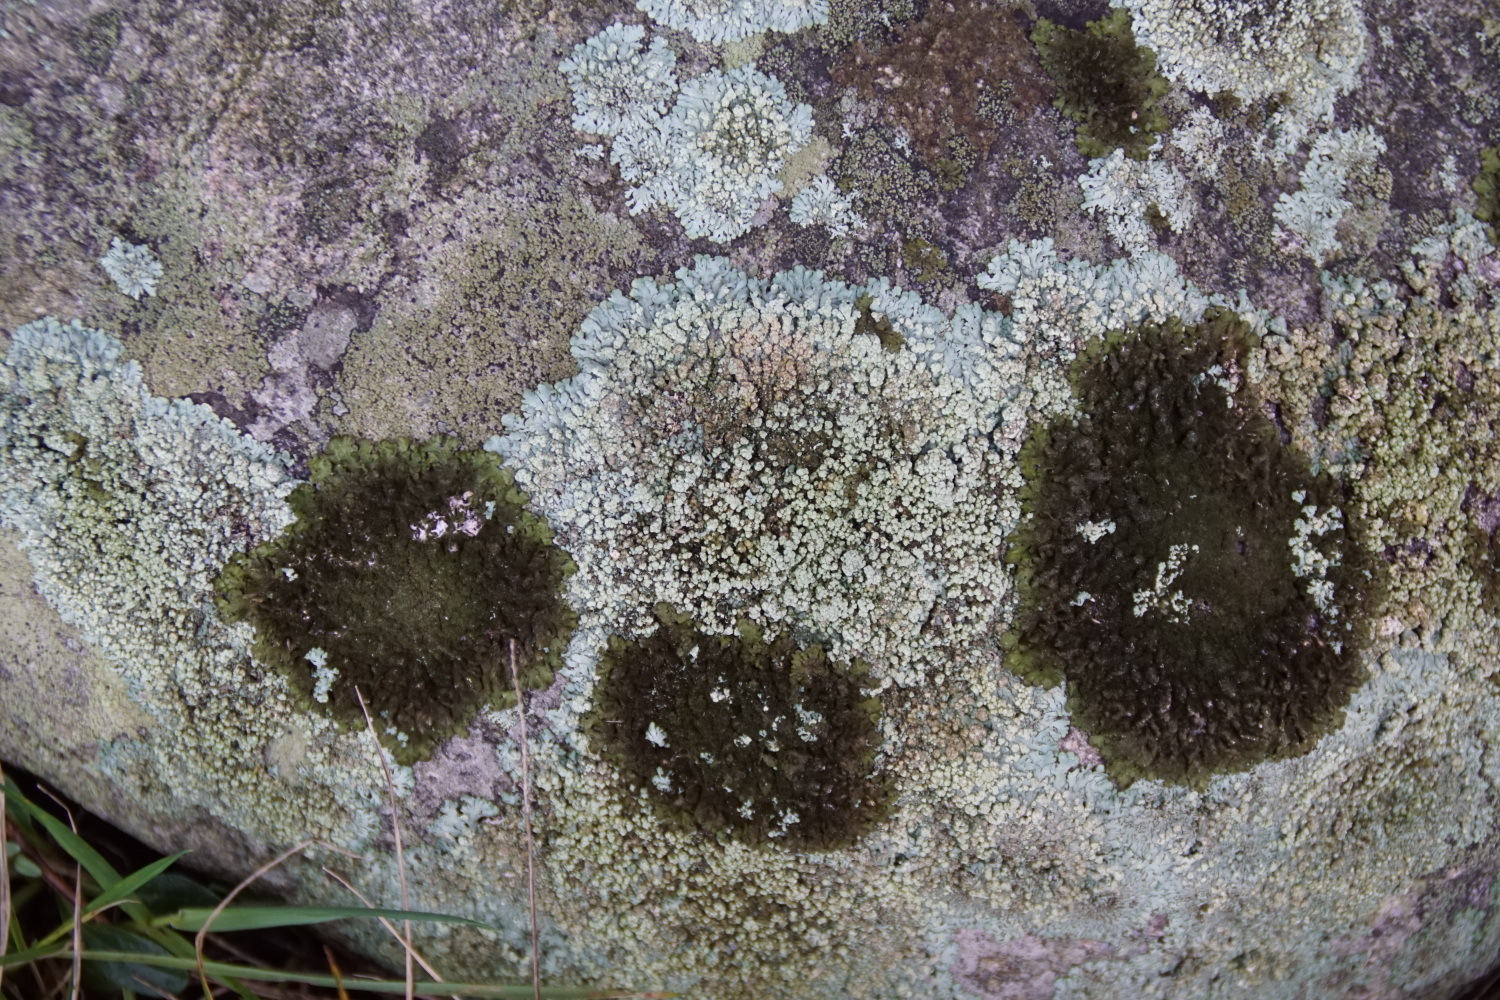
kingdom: Fungi
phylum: Ascomycota
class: Lecanoromycetes
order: Lecanorales
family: Parmeliaceae
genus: Xanthoparmelia
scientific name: Xanthoparmelia mougeotii
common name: liden skållav
